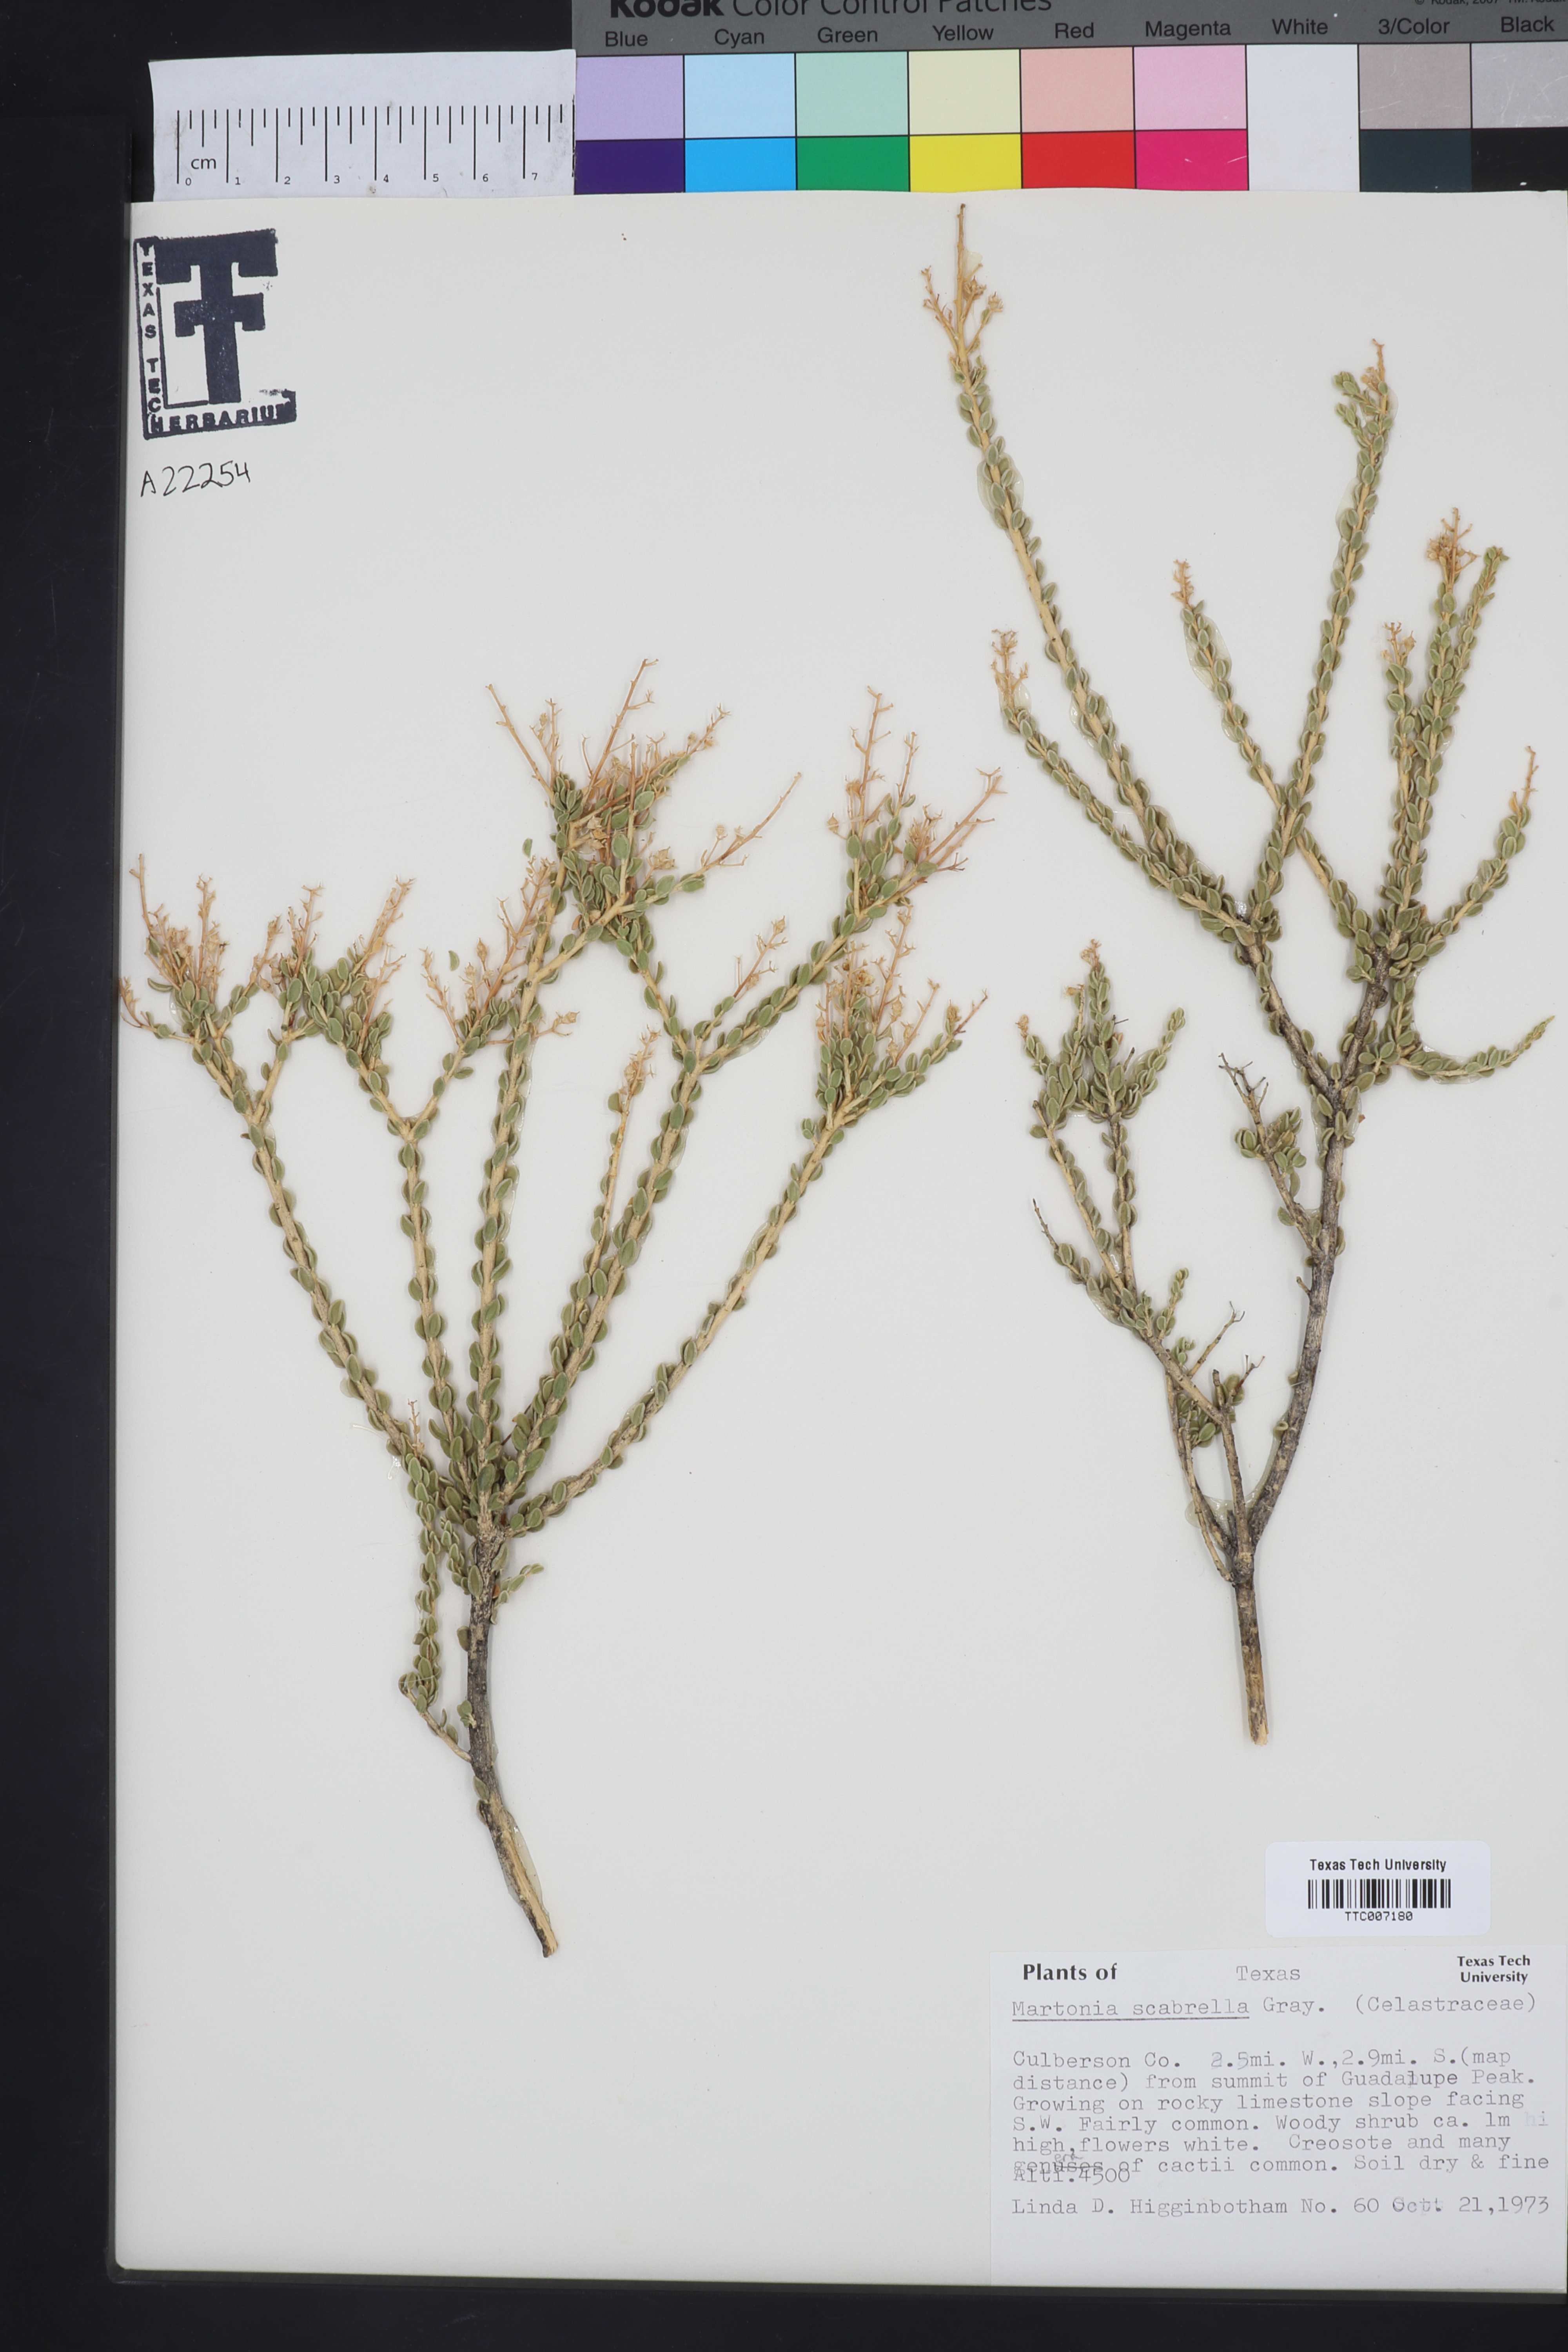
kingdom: Plantae
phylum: Tracheophyta
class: Magnoliopsida
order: Celastrales
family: Celastraceae
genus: Mortonia
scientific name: Mortonia scabrella
